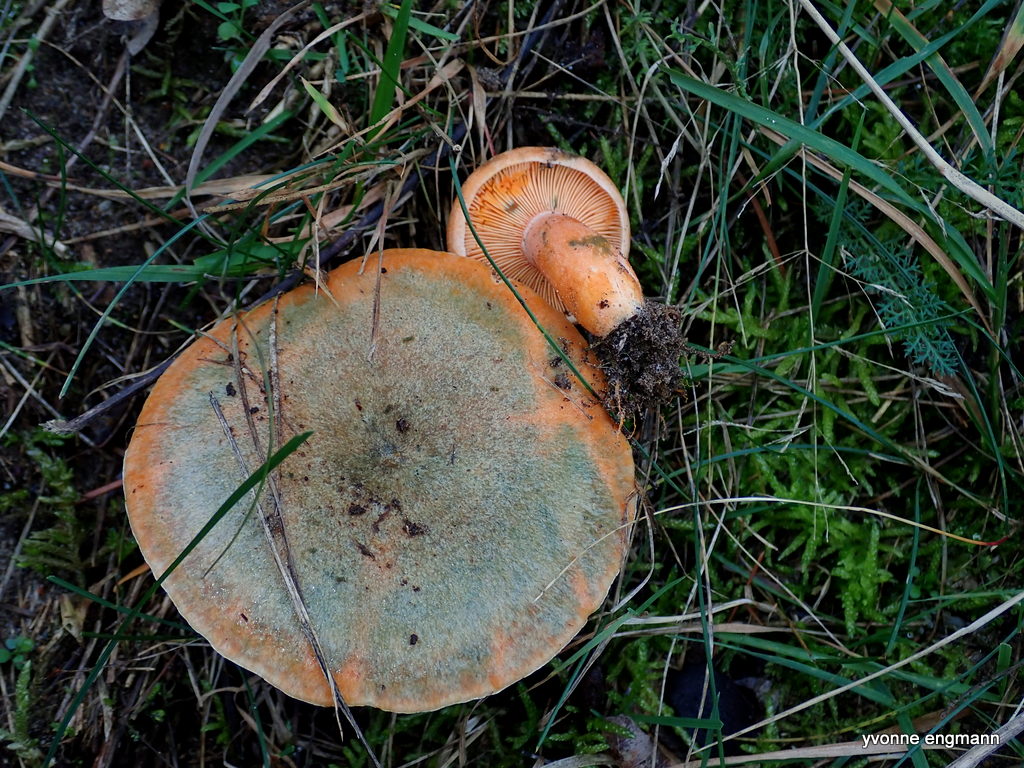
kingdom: Fungi
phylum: Basidiomycota
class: Agaricomycetes
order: Russulales
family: Russulaceae
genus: Lactarius
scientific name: Lactarius deterrimus
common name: gran-mælkehat
